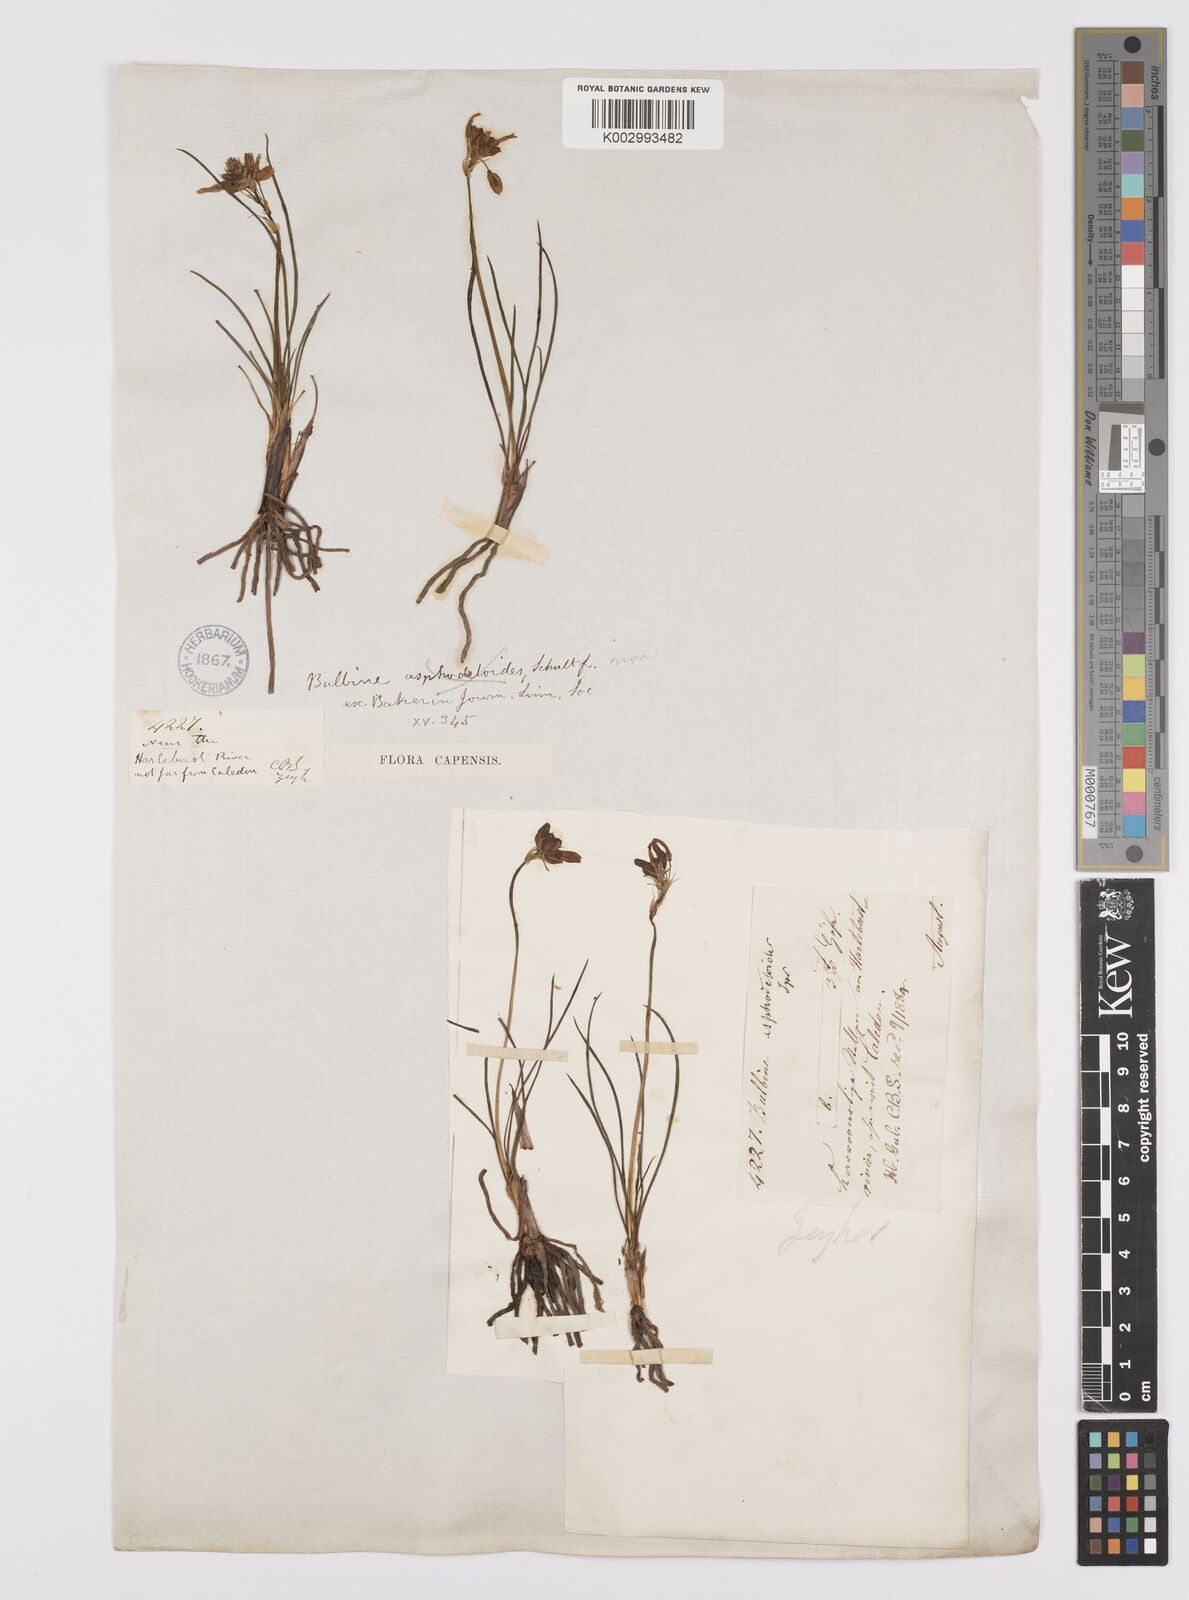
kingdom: Plantae
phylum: Tracheophyta
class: Liliopsida
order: Asparagales
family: Asphodelaceae
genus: Bulbine
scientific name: Bulbine lagopus
